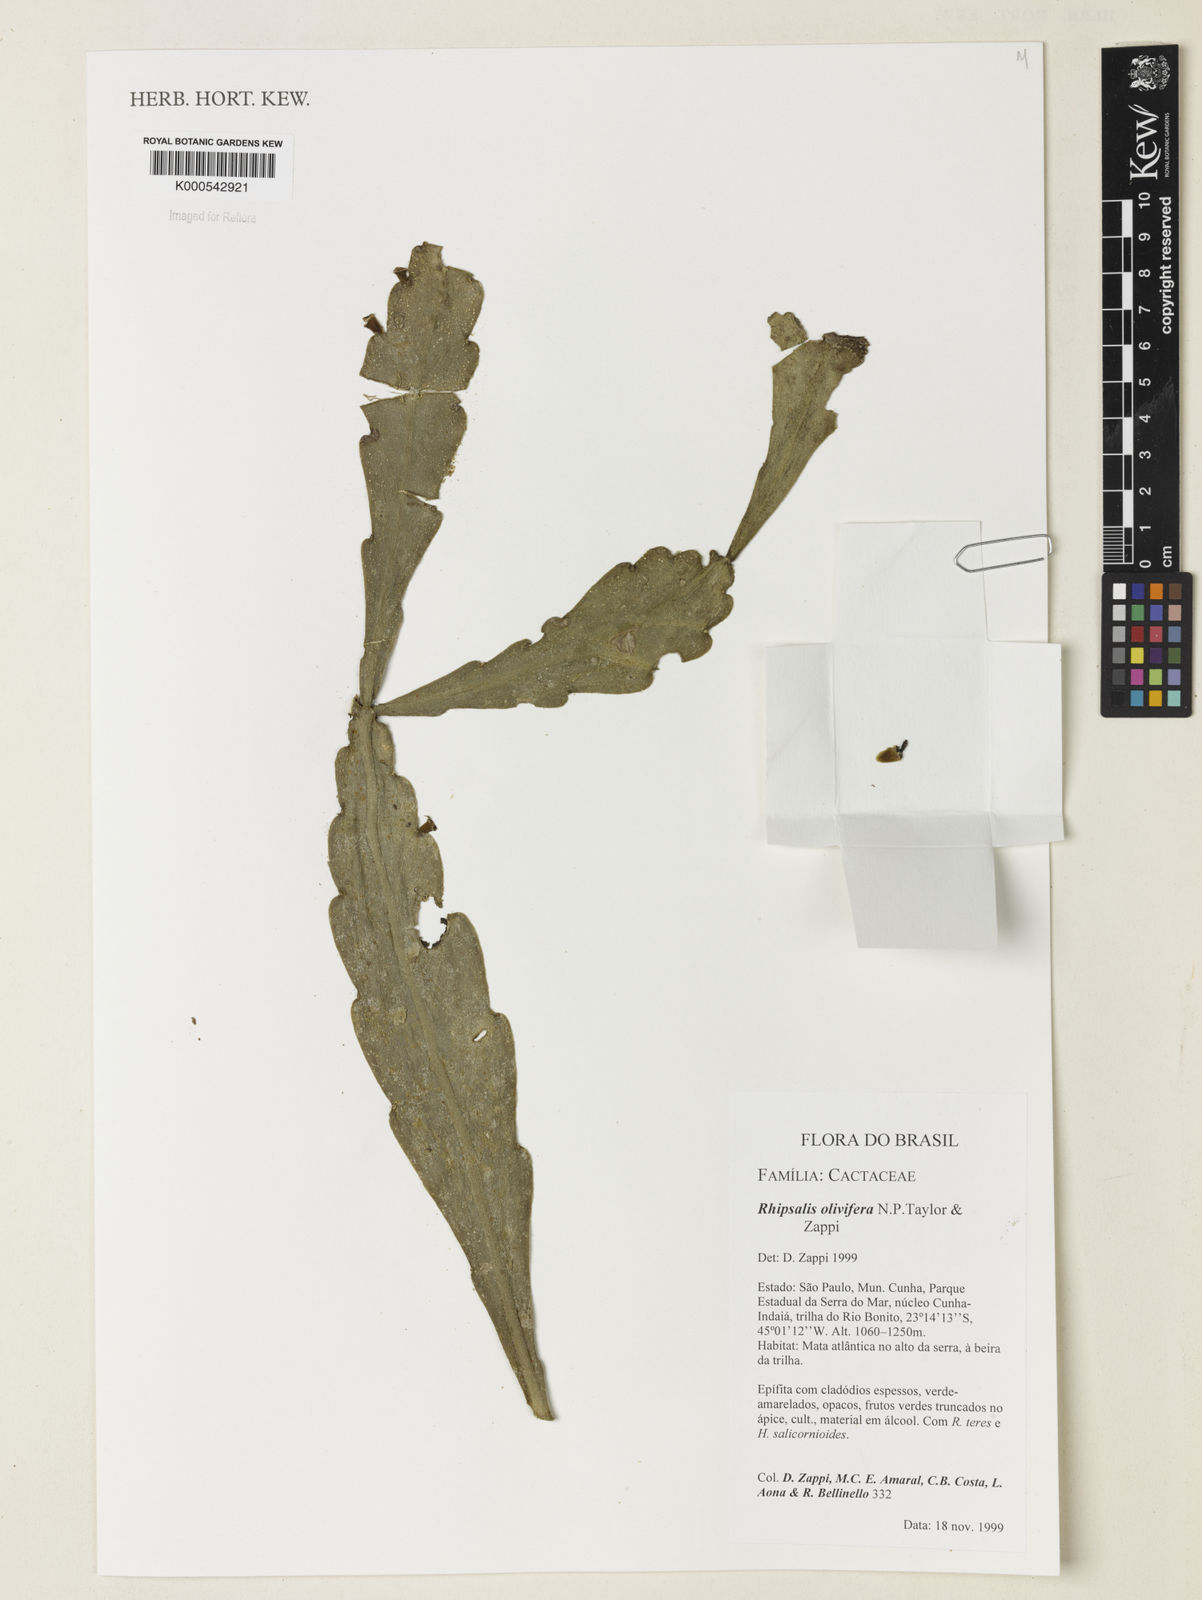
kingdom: Plantae
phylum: Tracheophyta
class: Magnoliopsida
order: Caryophyllales
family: Cactaceae
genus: Rhipsalis
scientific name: Rhipsalis olivifera
